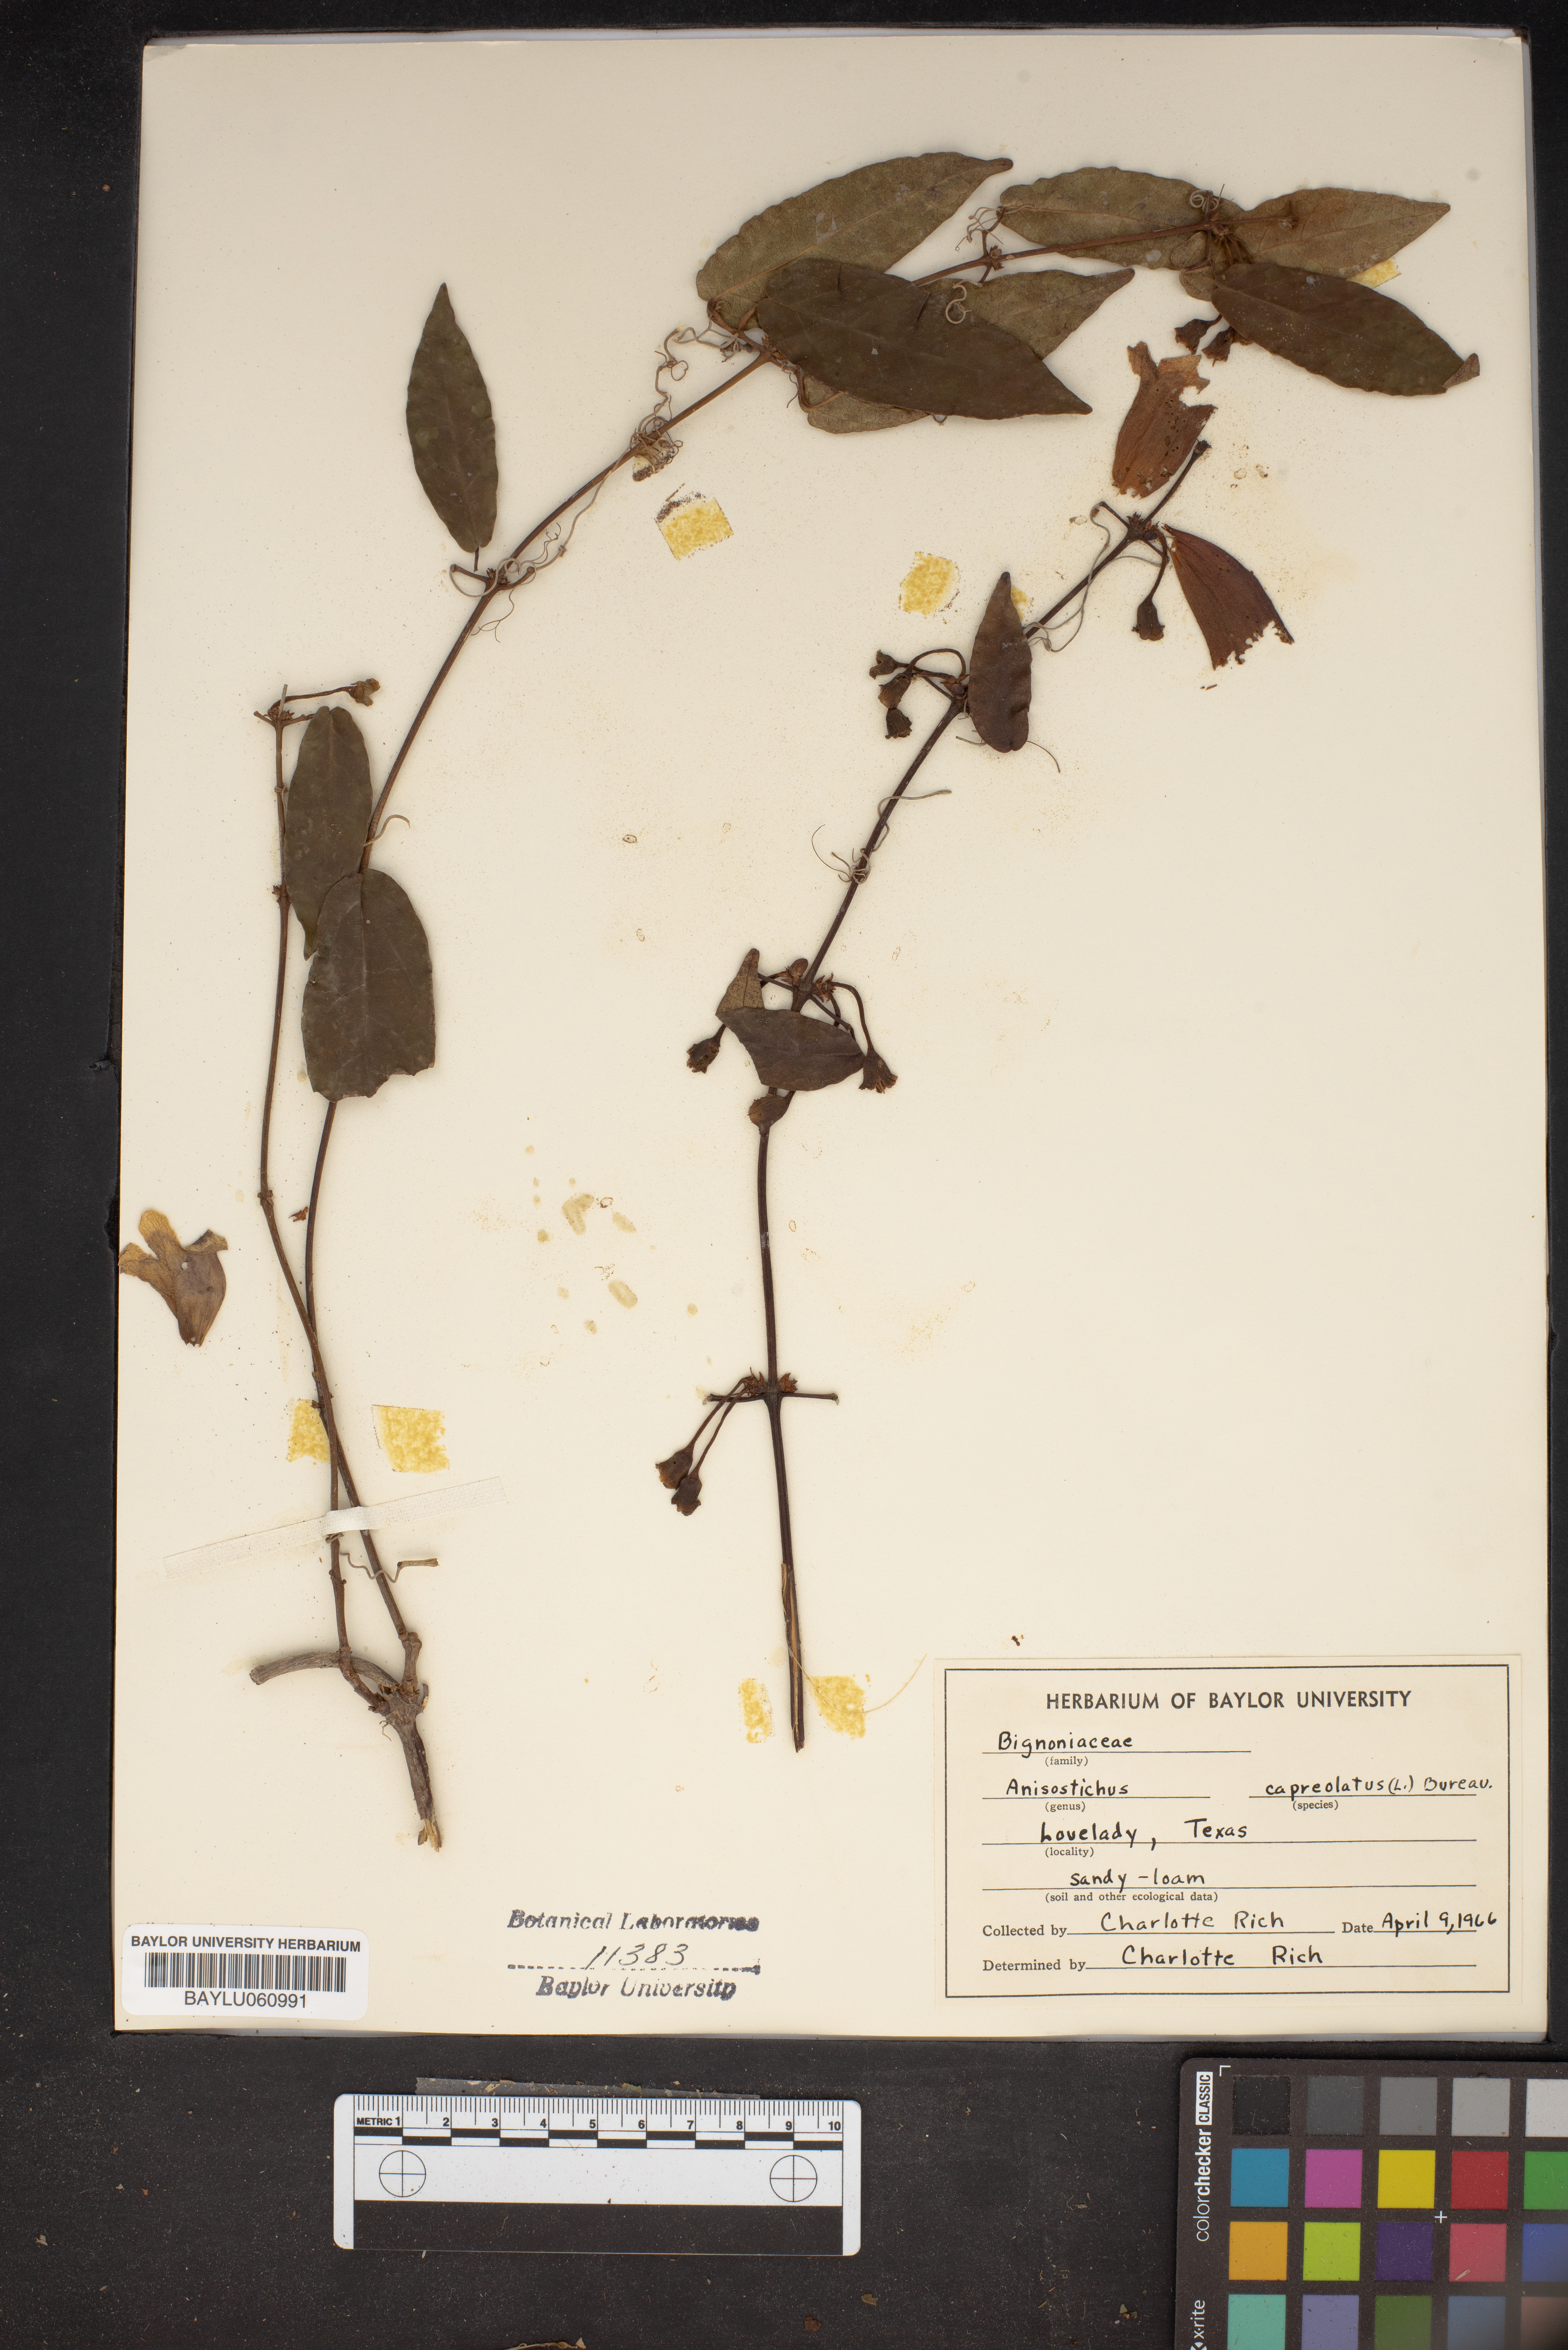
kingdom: Plantae
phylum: Tracheophyta
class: Magnoliopsida
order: Lamiales
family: Bignoniaceae
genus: Bignonia
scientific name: Bignonia capreolata
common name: Crossvine
